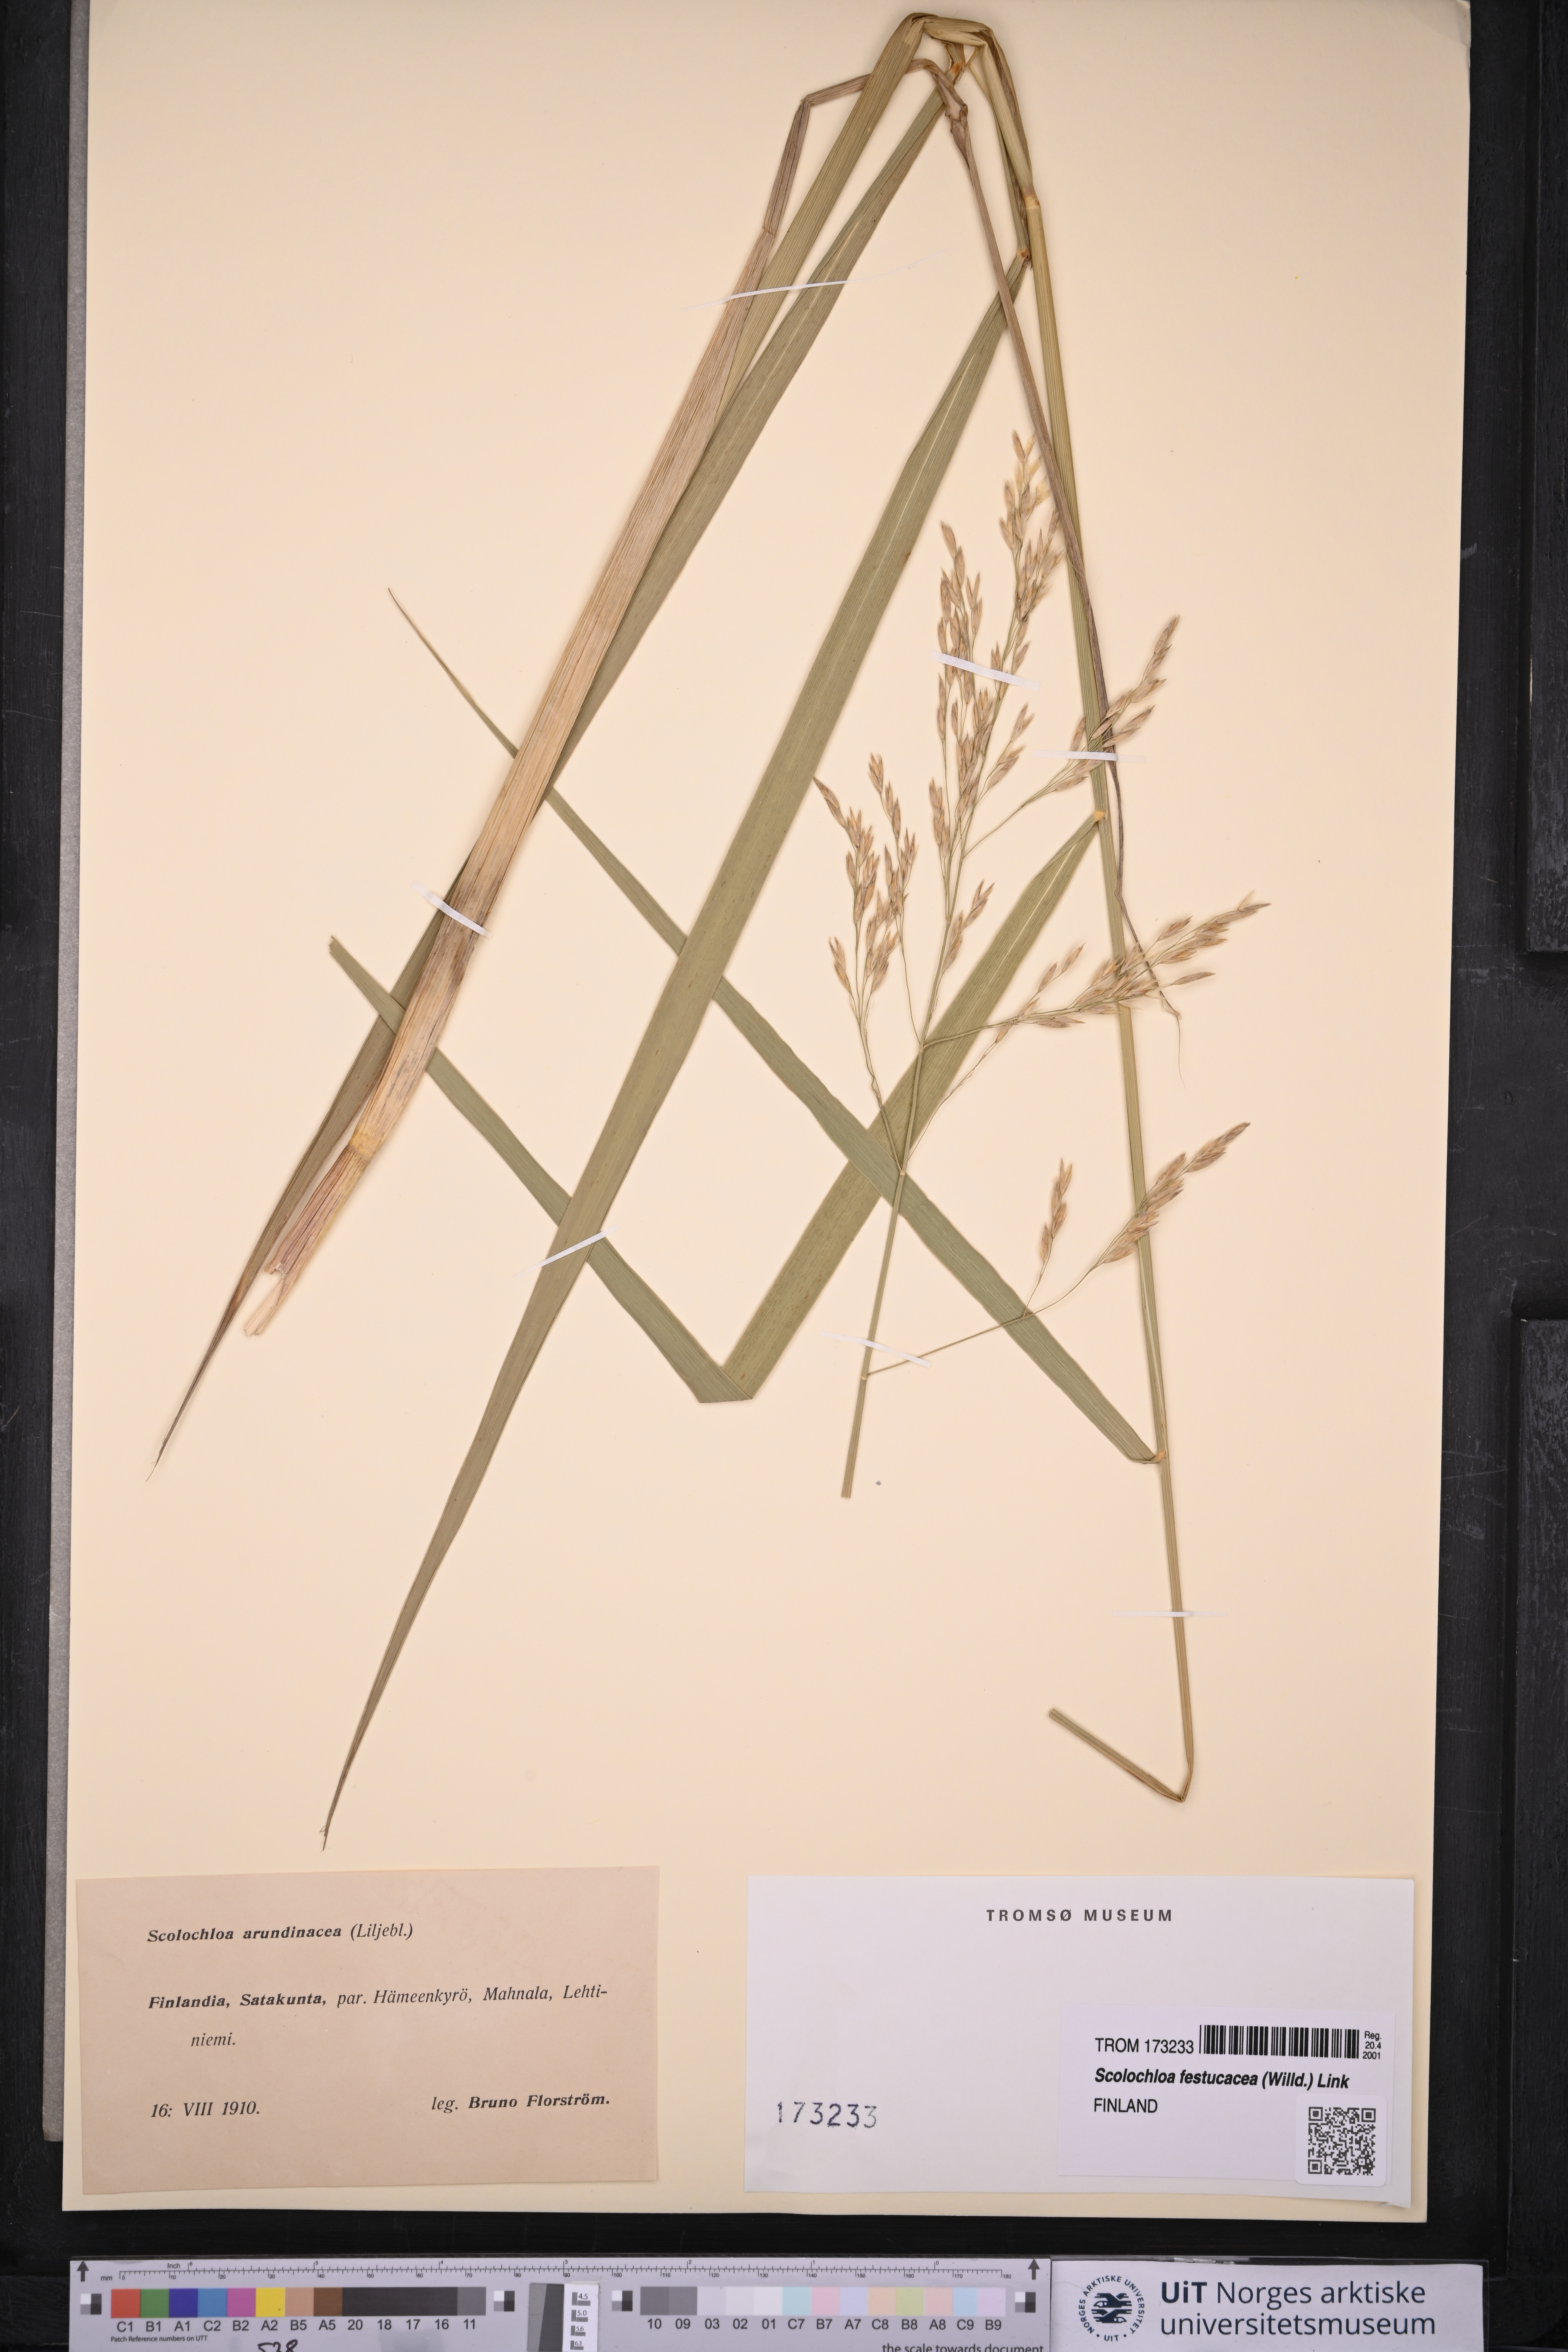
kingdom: Plantae
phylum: Tracheophyta
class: Liliopsida
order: Poales
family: Poaceae
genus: Scolochloa
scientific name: Scolochloa festucacea
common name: Common rivergrass
